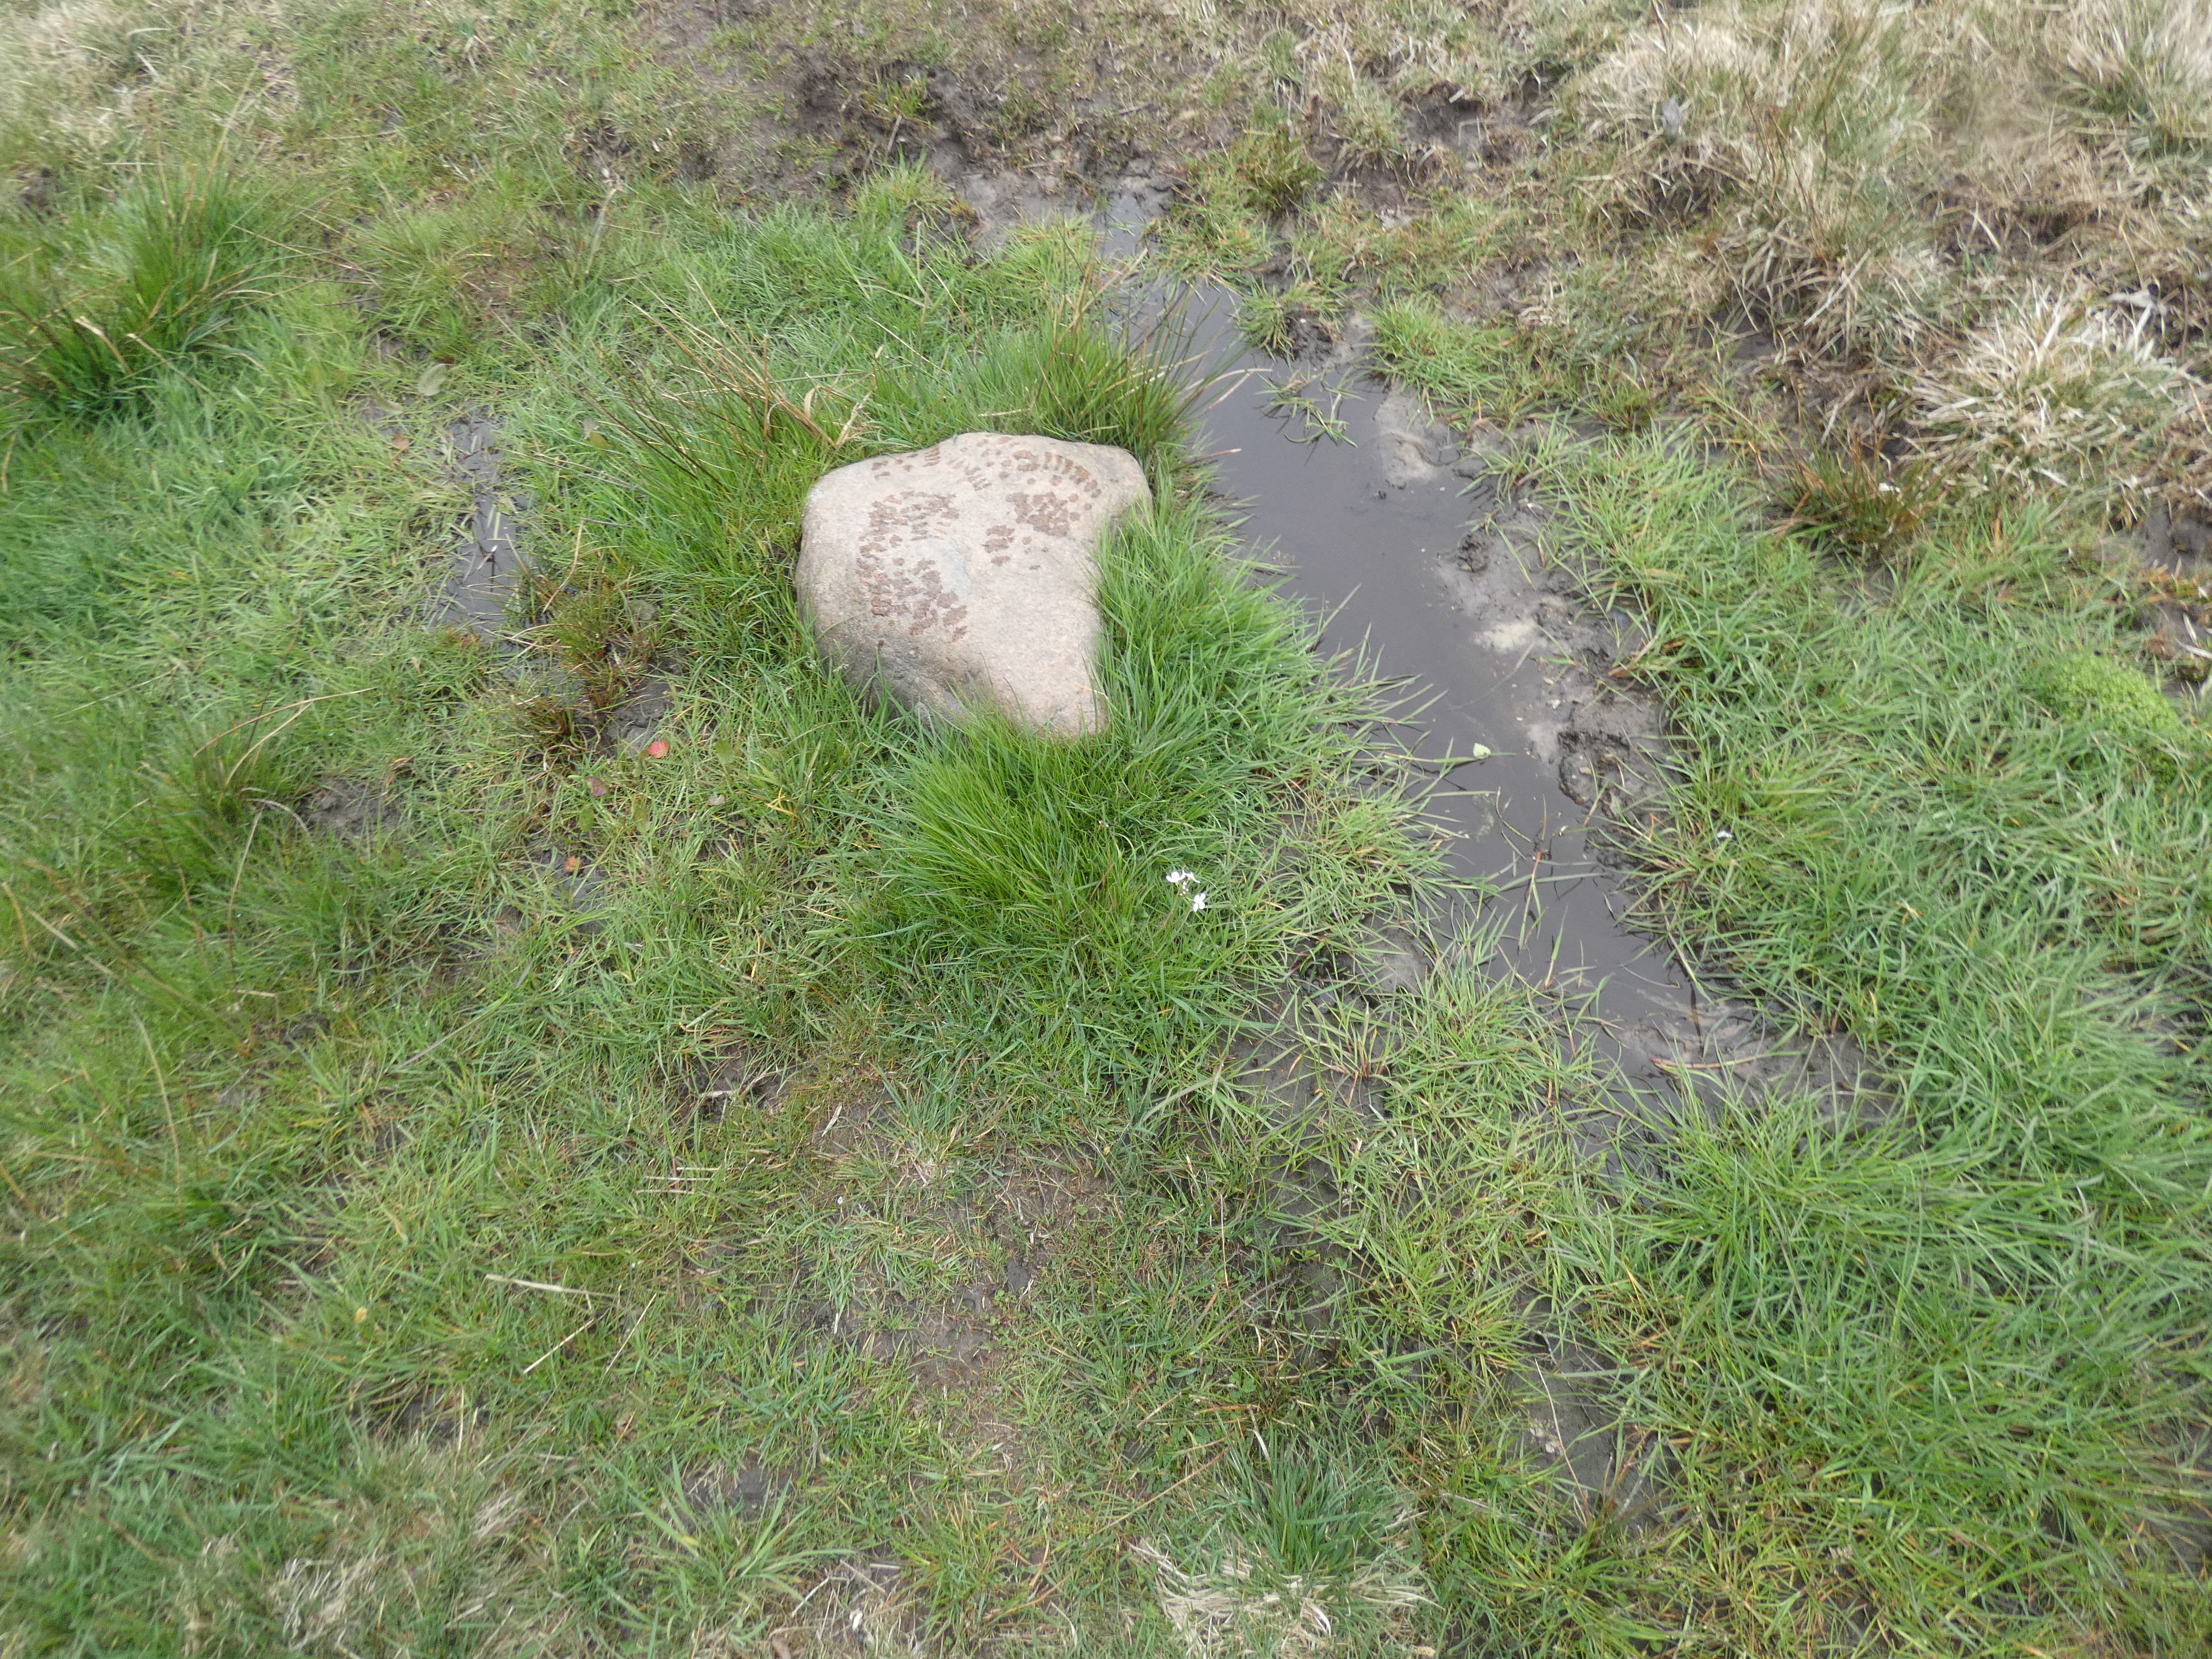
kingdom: Plantae
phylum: Tracheophyta
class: Magnoliopsida
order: Brassicales
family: Brassicaceae
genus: Cardamine
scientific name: Cardamine pratensis
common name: Engkarse
